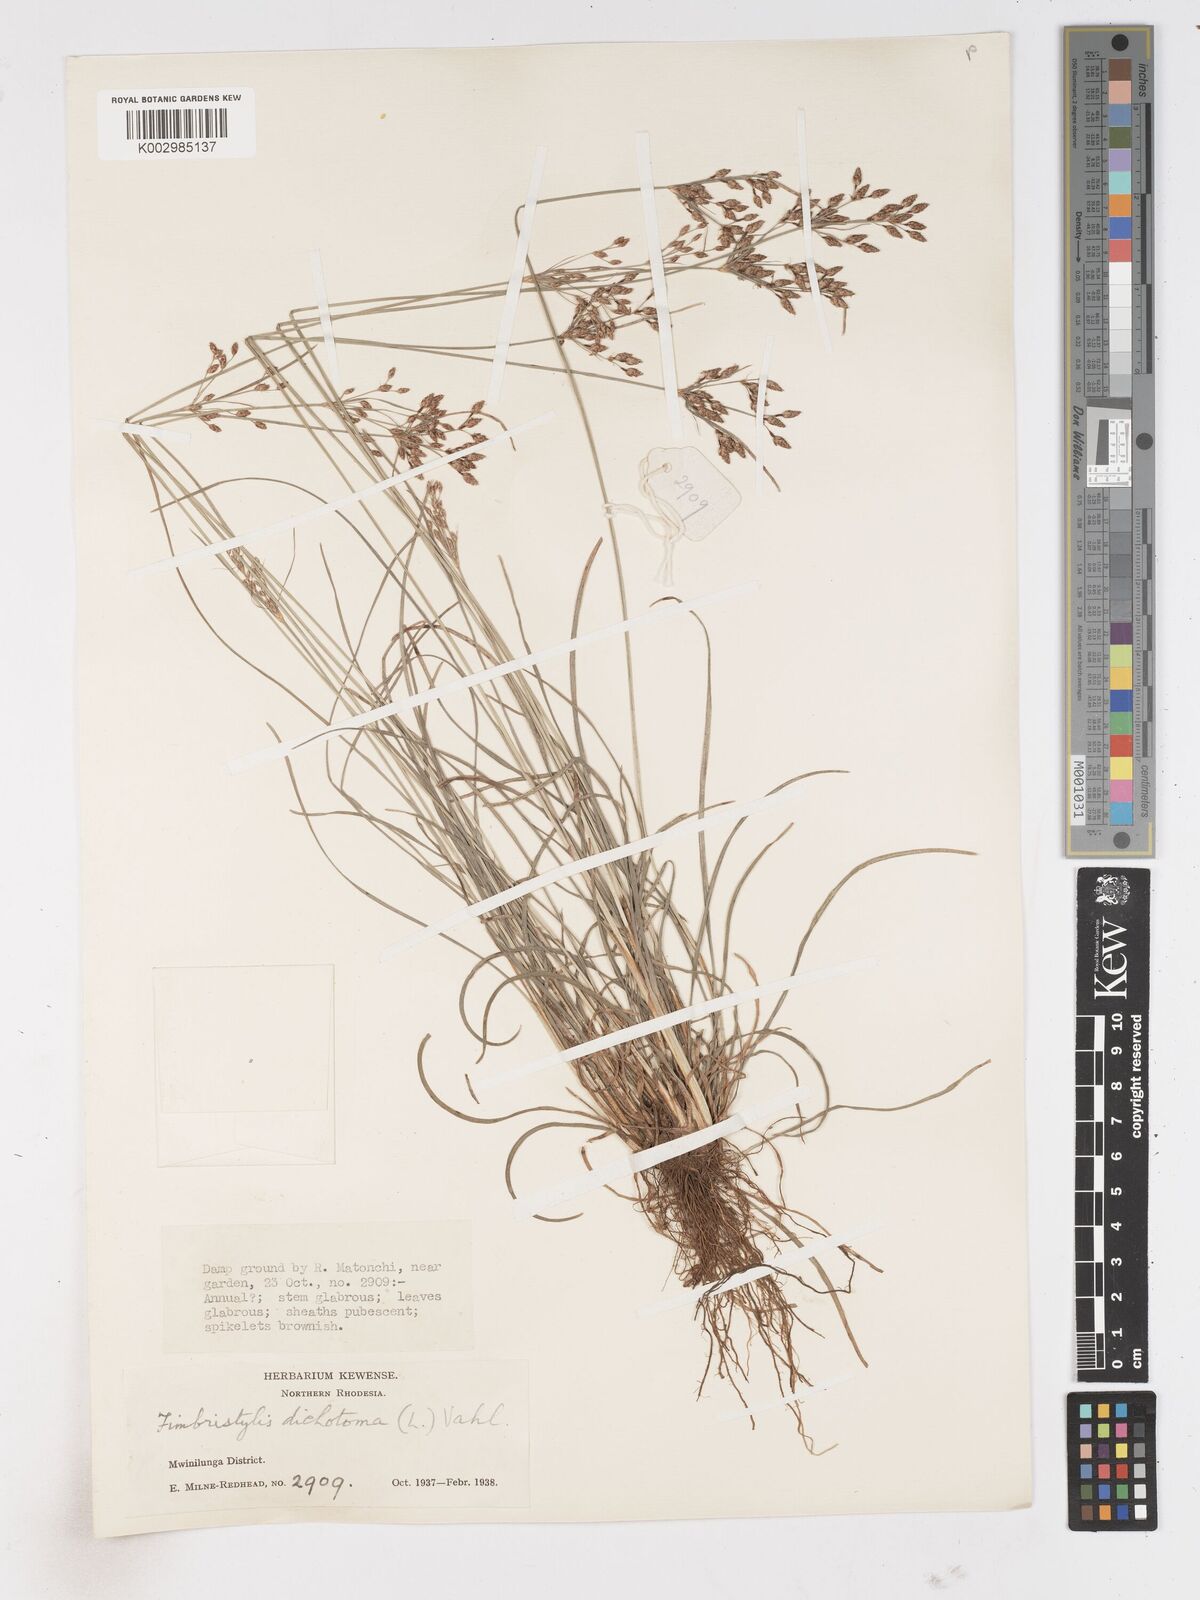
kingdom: Plantae
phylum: Tracheophyta
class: Liliopsida
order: Poales
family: Cyperaceae
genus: Fimbristylis
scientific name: Fimbristylis dichotoma
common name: Forked fimbry
